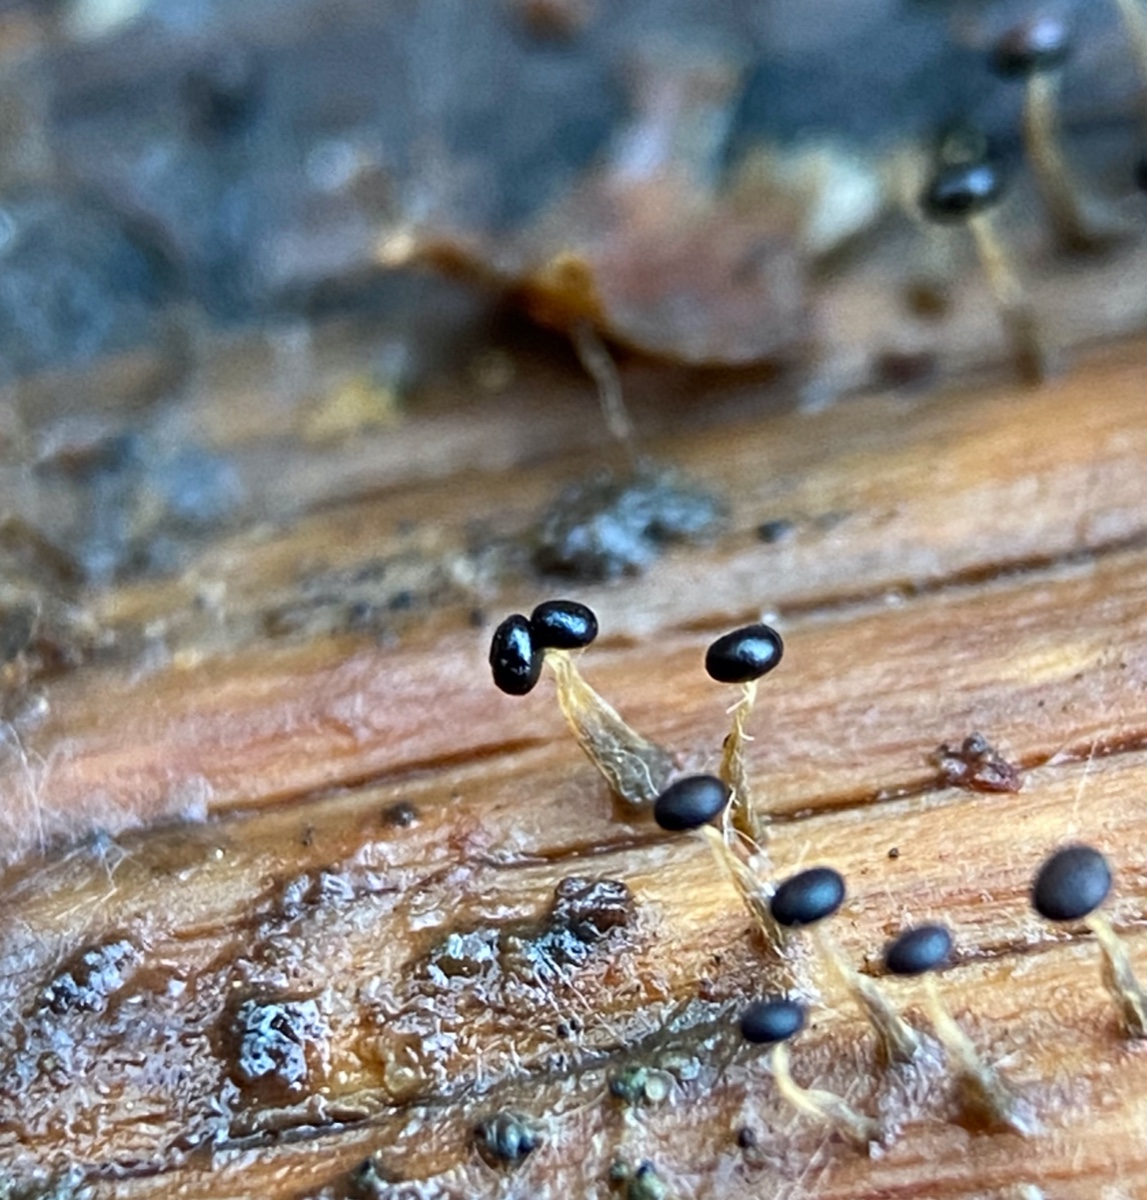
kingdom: Protozoa
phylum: Mycetozoa
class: Myxomycetes
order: Physarales
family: Physaraceae
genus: Physarum
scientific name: Physarum
